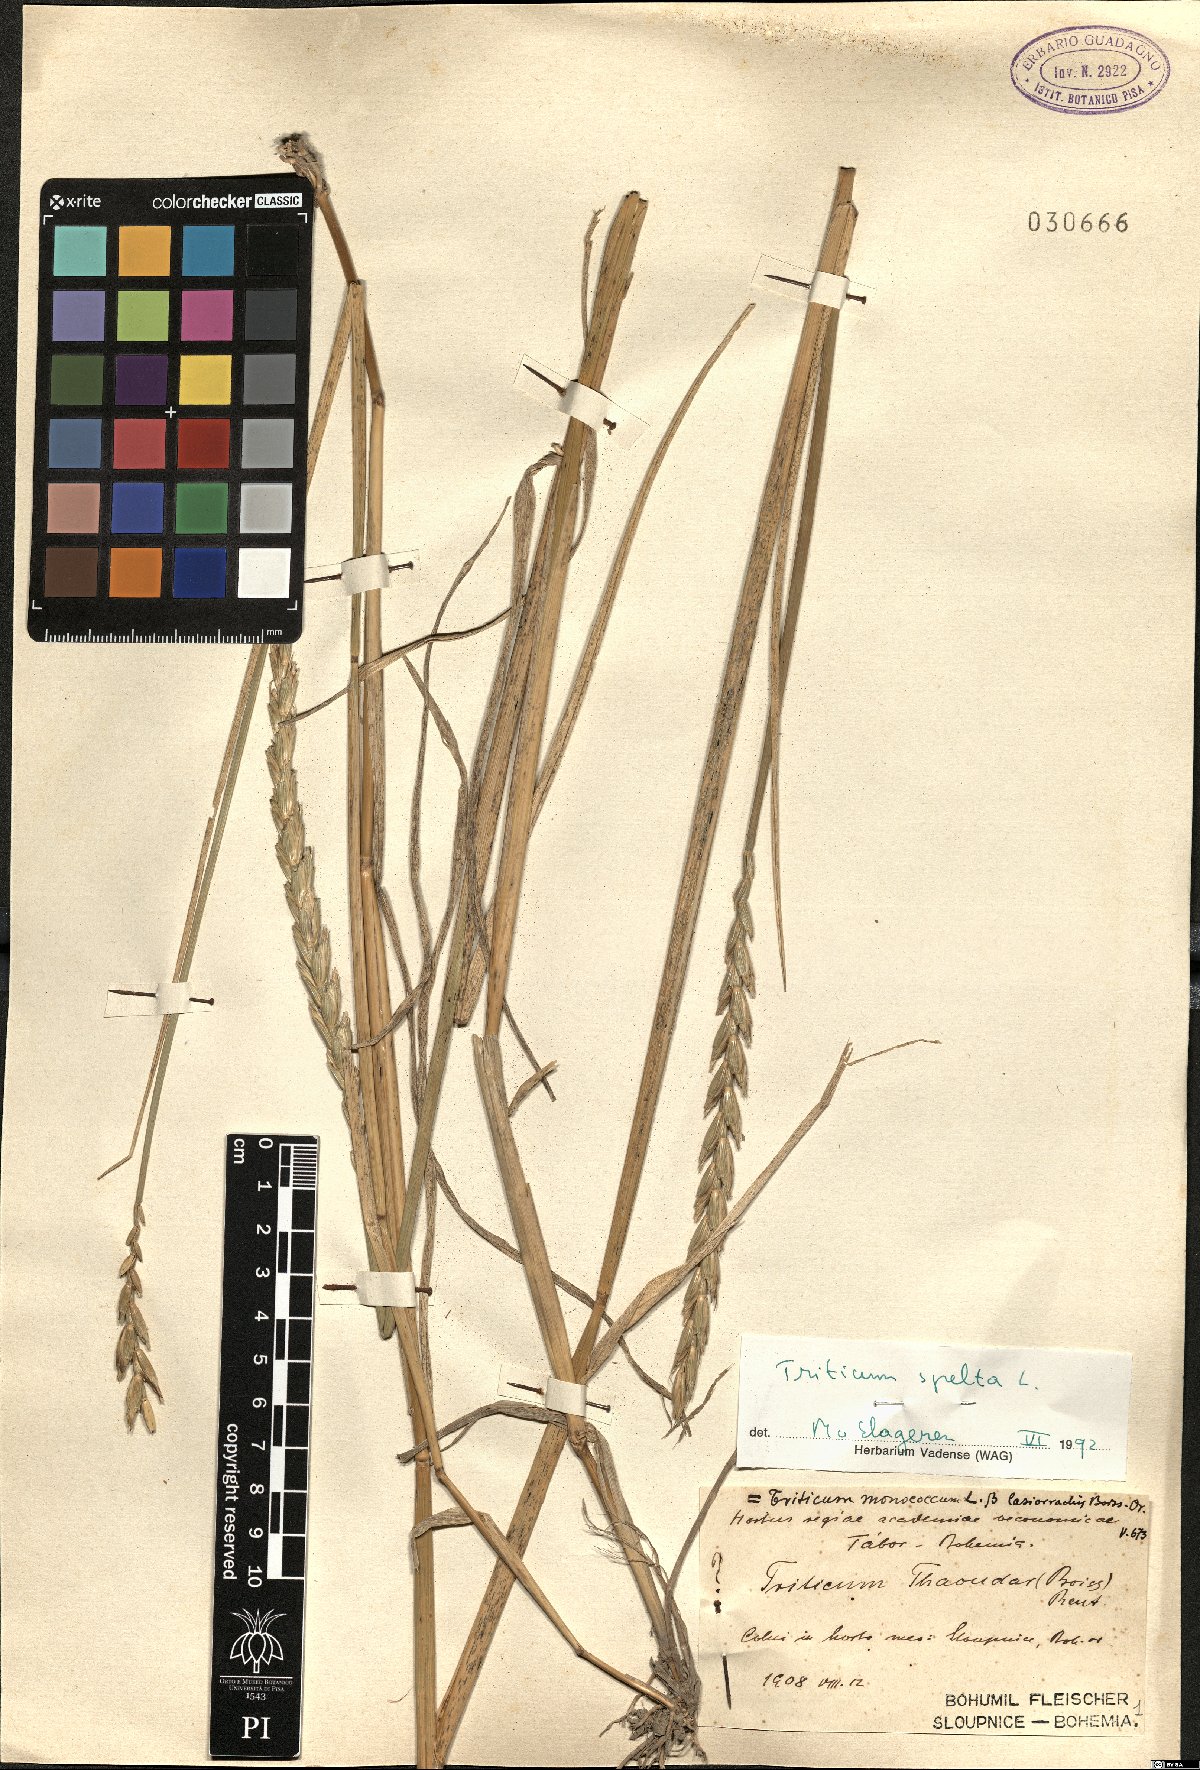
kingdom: Plantae
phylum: Tracheophyta
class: Liliopsida
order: Poales
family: Poaceae
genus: Triticum
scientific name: Triticum aestivum
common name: Common wheat
